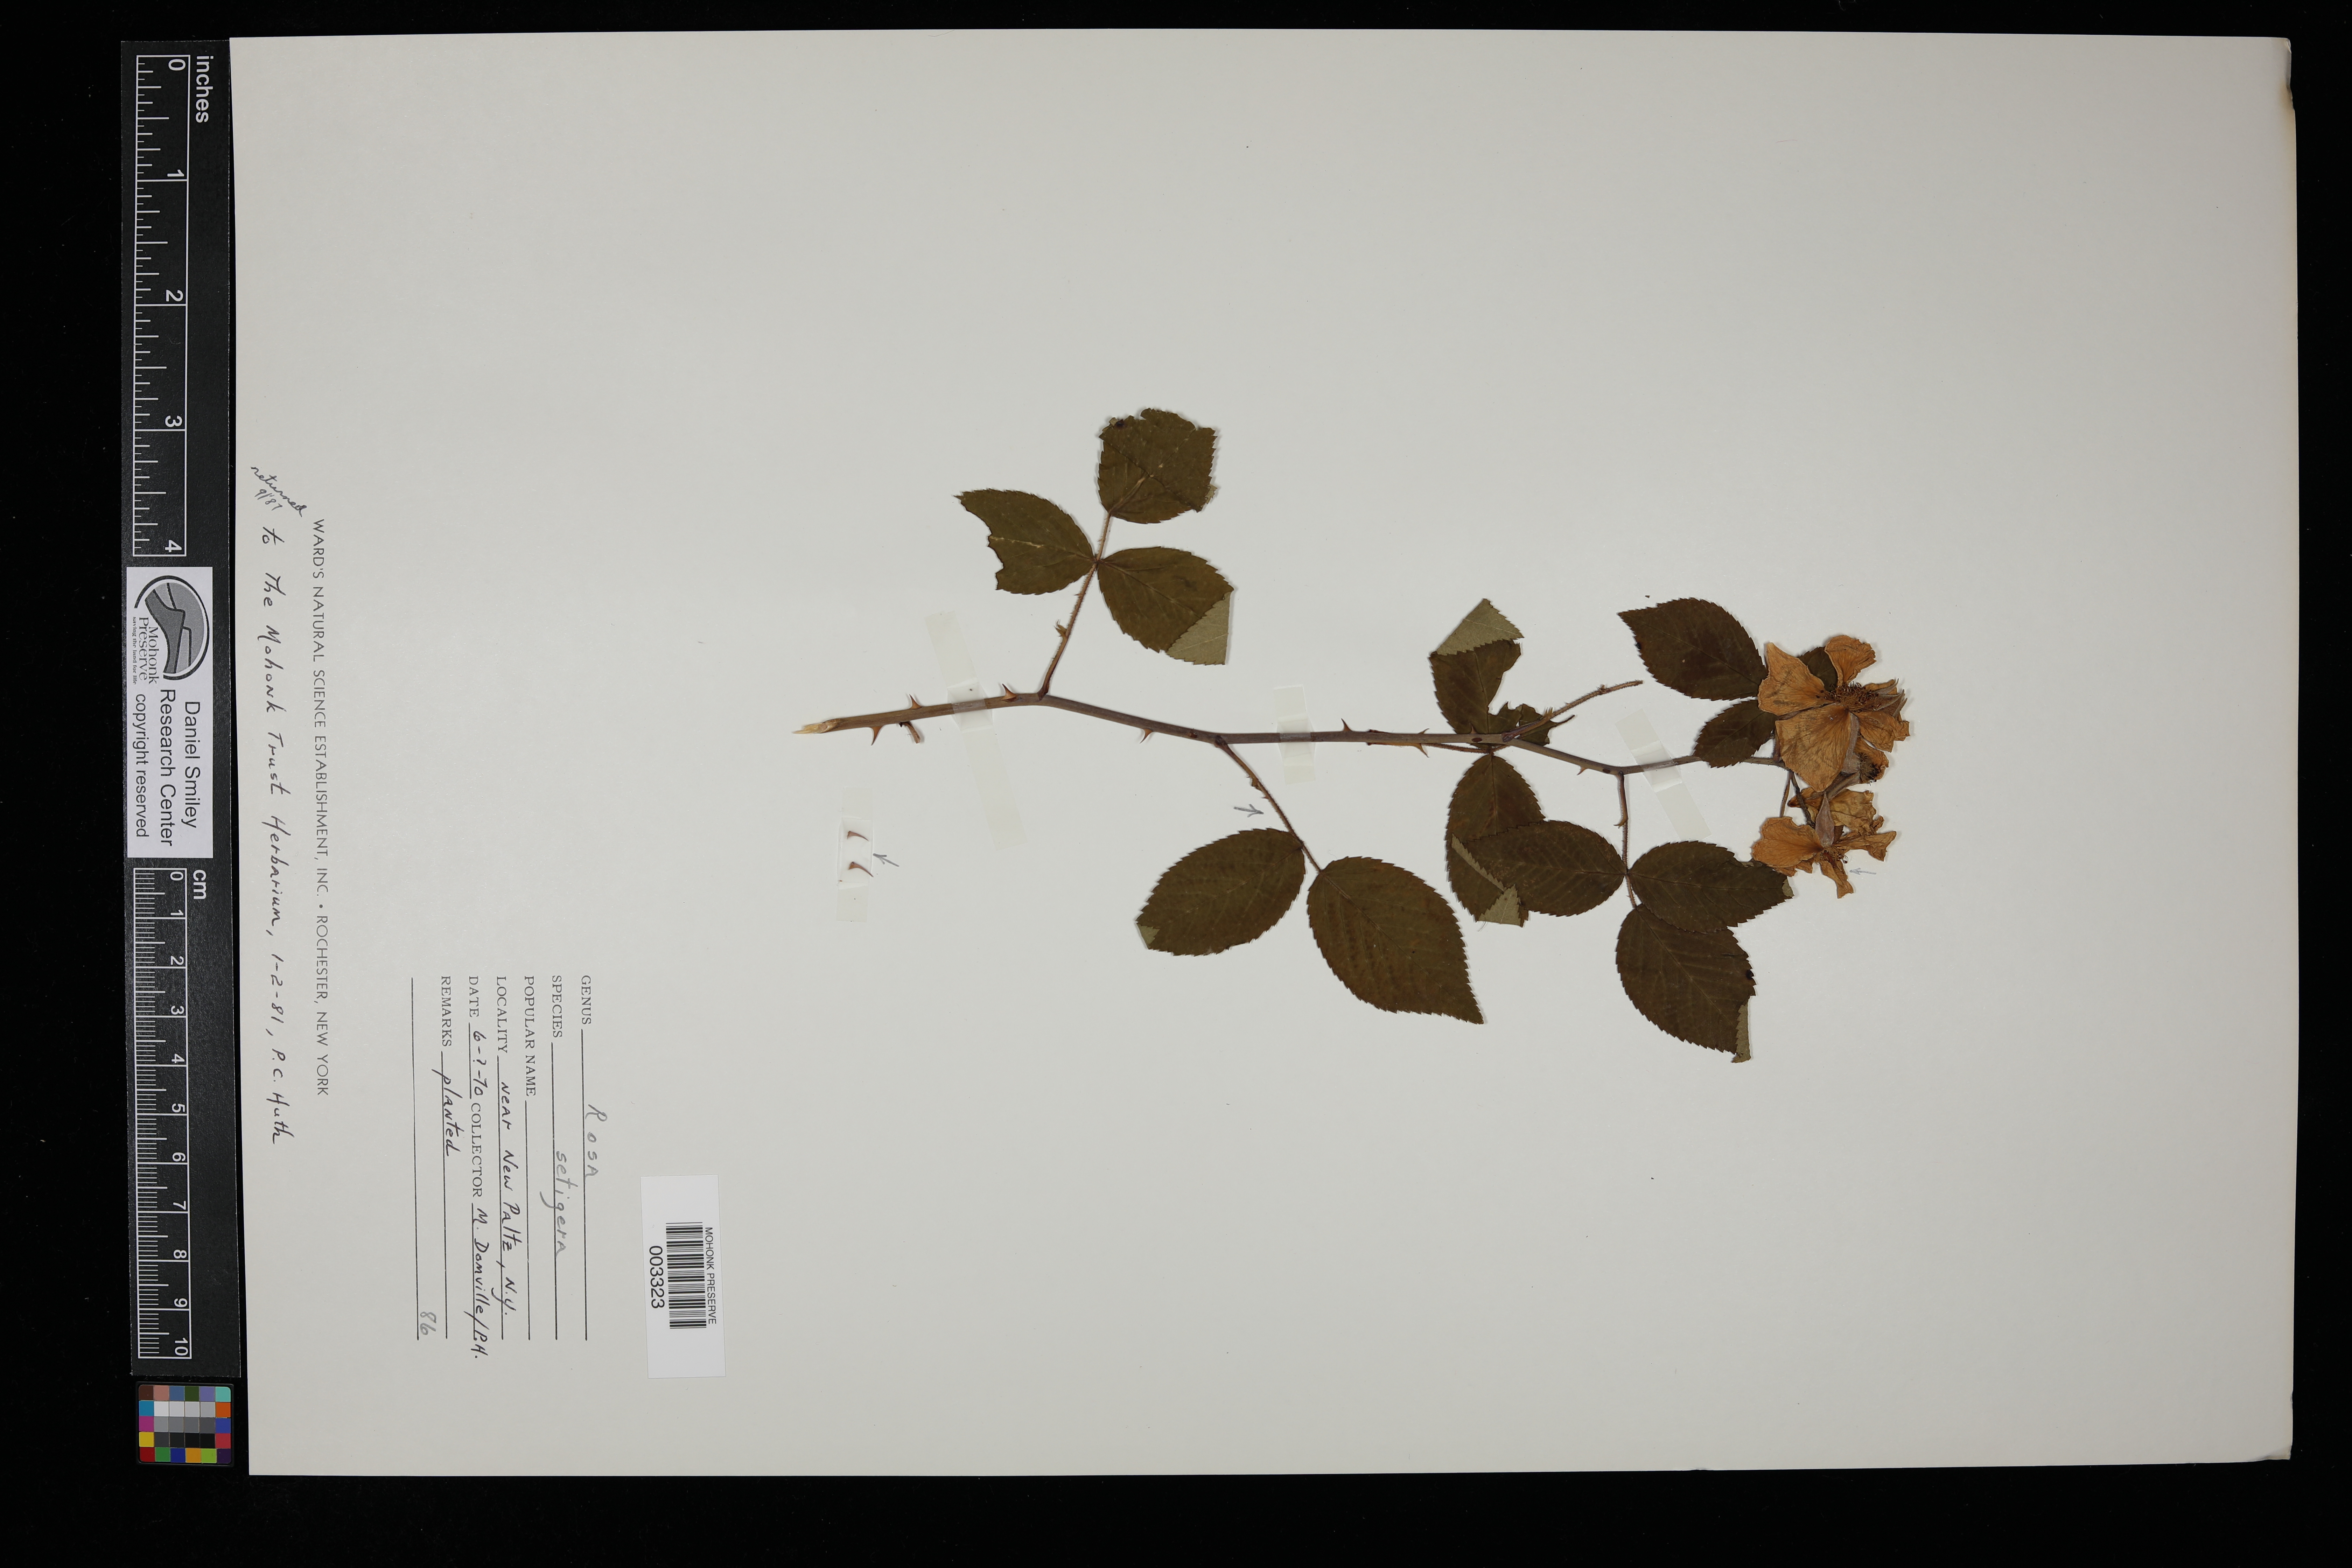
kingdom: Plantae
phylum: Tracheophyta
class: Magnoliopsida
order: Rosales
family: Rosaceae
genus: Rosa
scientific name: Rosa setigera
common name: Prairie rose
